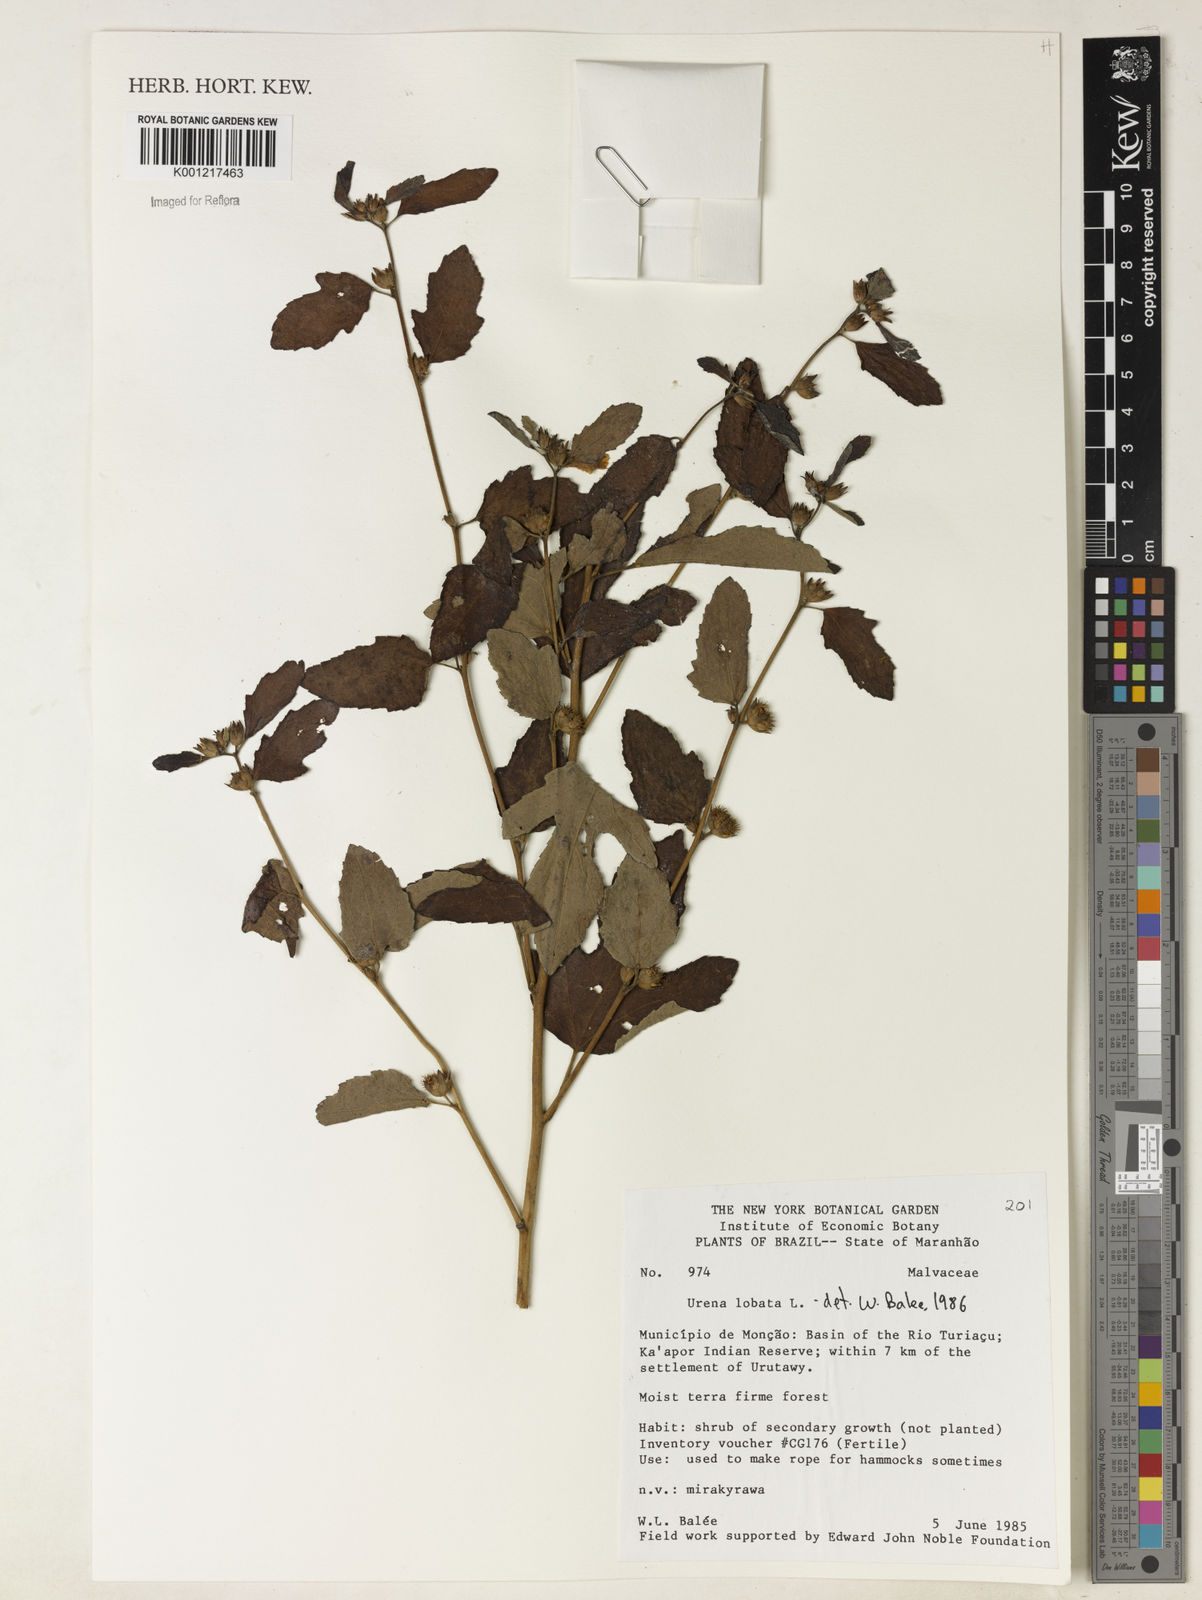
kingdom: Plantae
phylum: Tracheophyta
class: Magnoliopsida
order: Malvales
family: Malvaceae
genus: Urena
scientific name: Urena lobata
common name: Caesarweed
